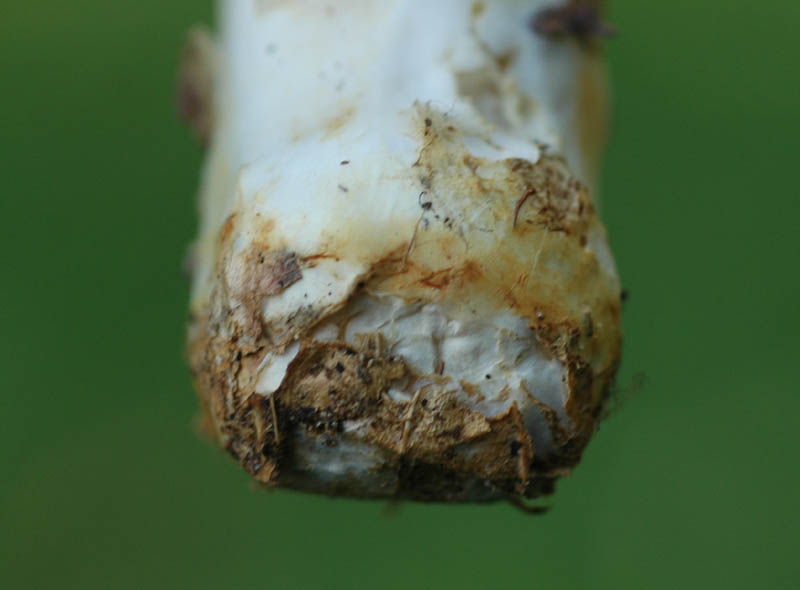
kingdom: Fungi
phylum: Basidiomycota
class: Agaricomycetes
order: Agaricales
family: Agaricaceae
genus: Agaricus
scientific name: Agaricus sylvicola
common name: skiveknoldet champignon
